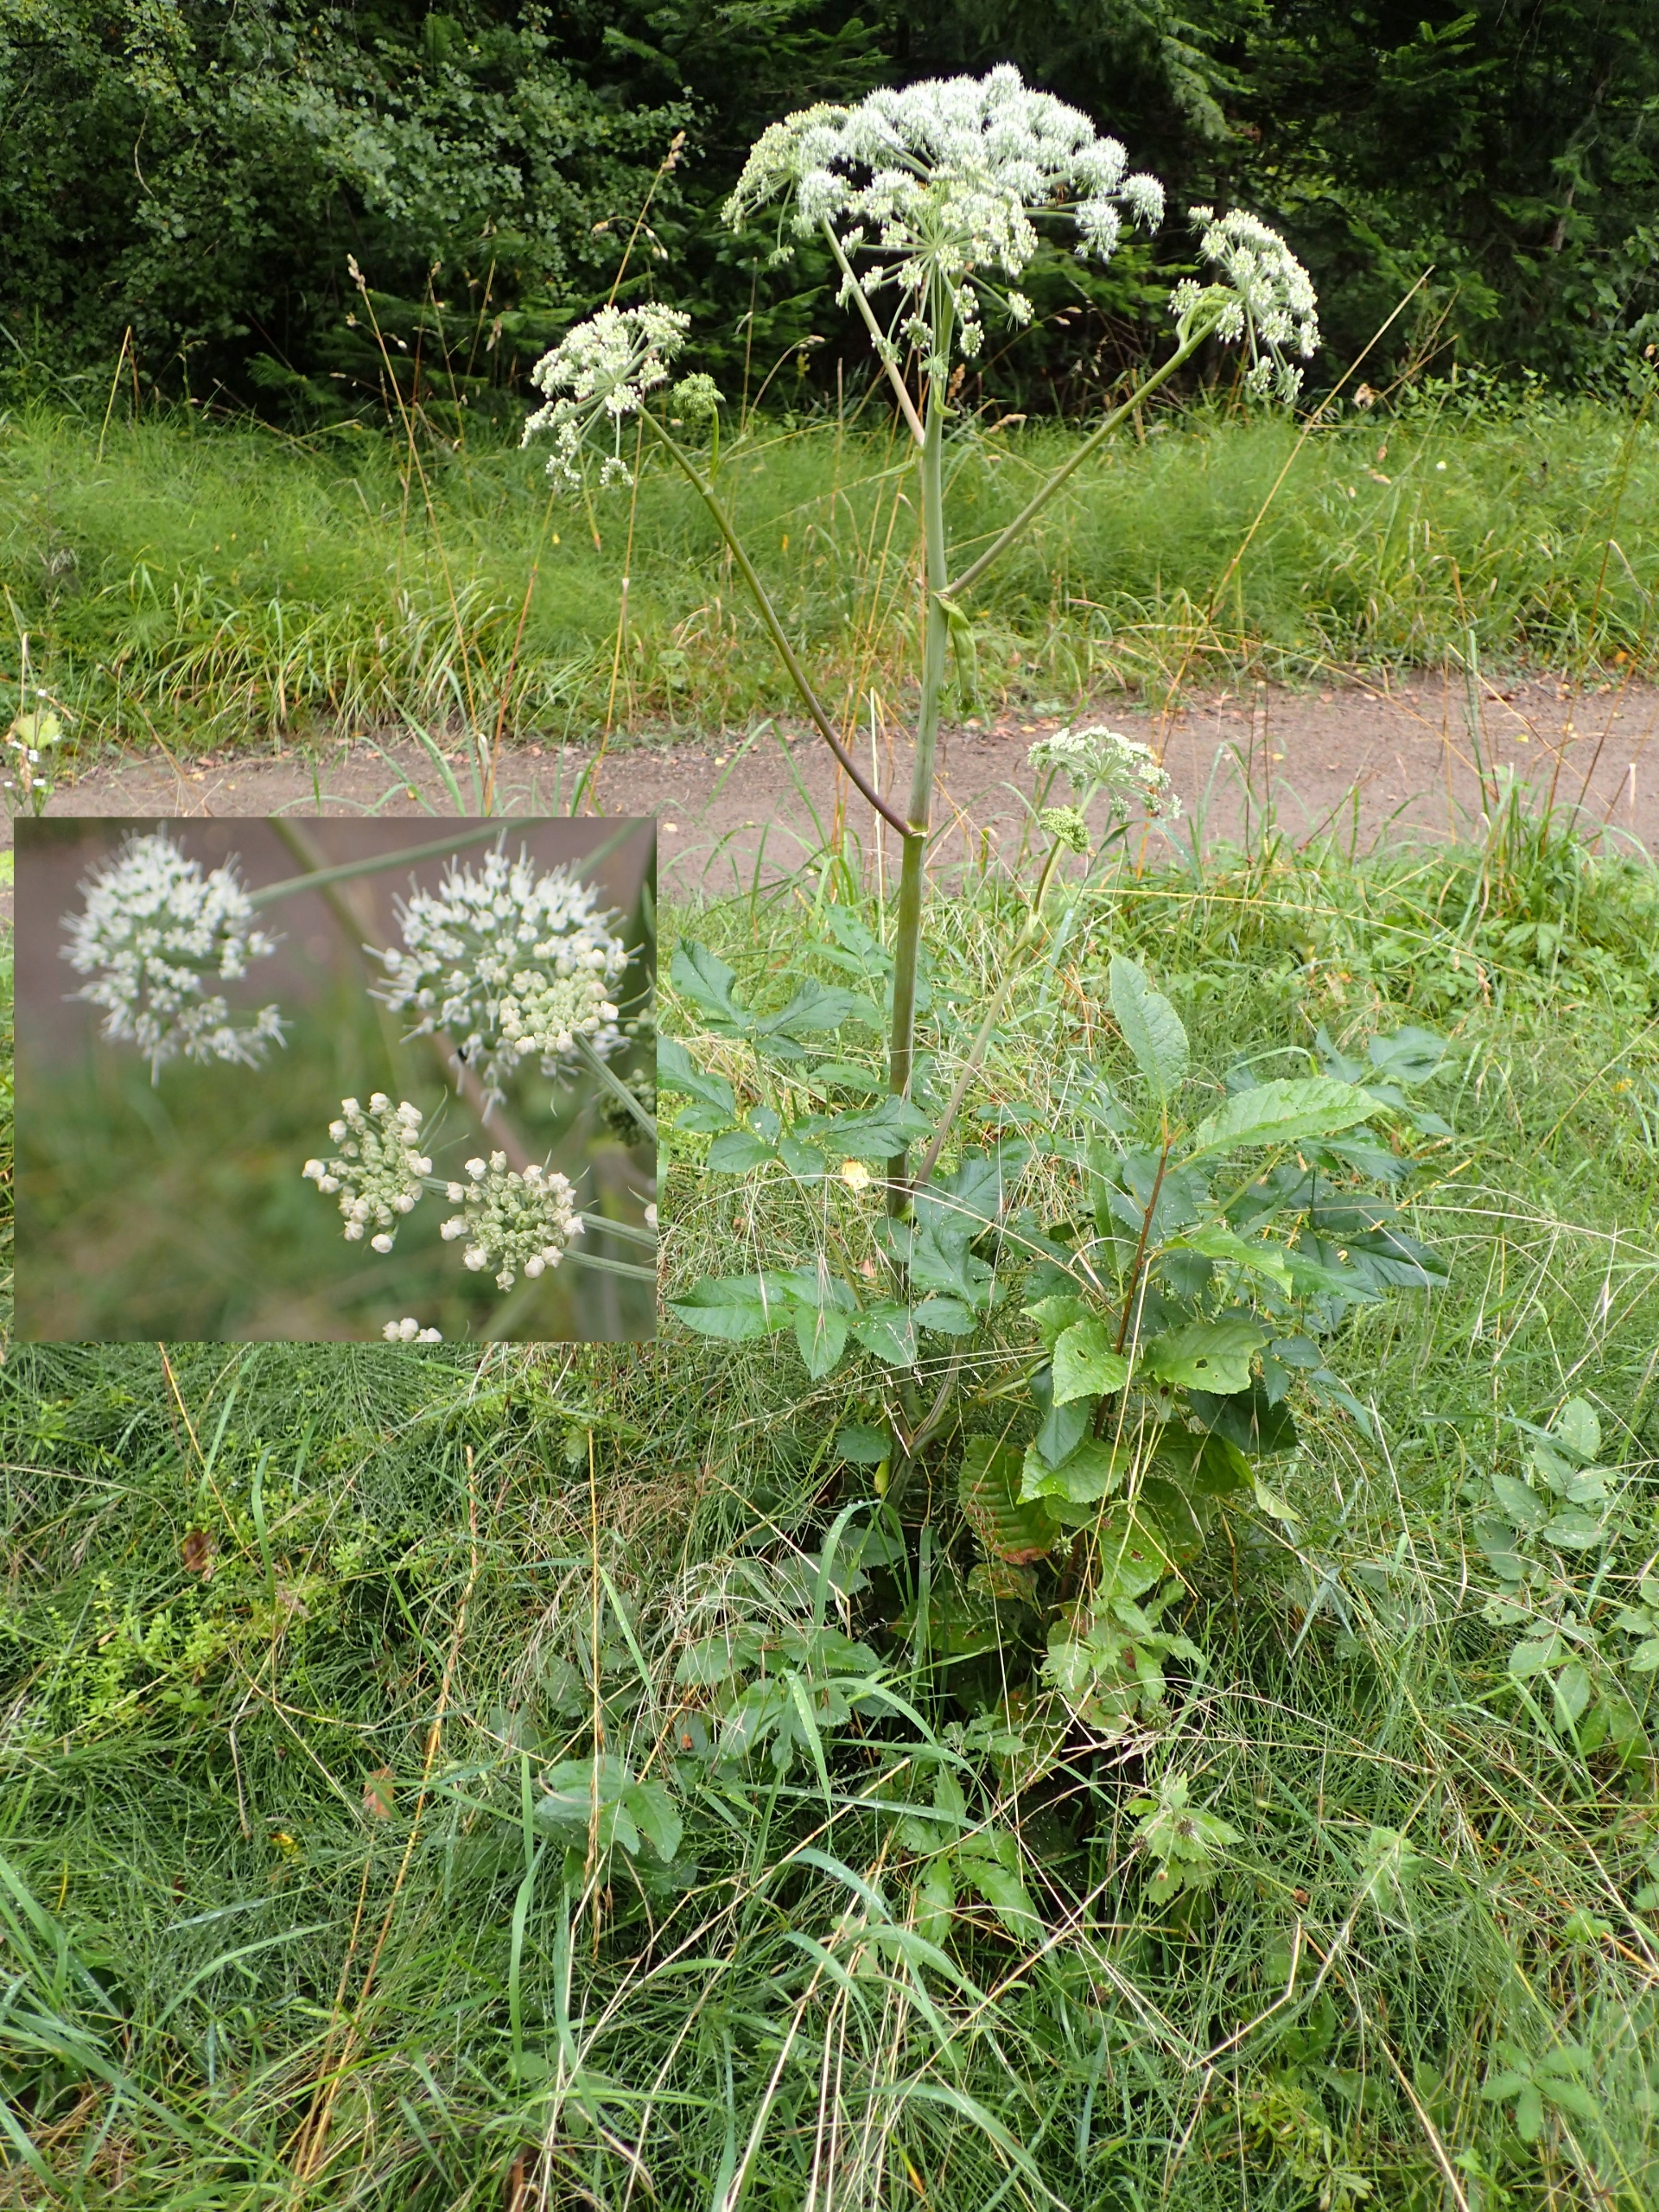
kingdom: Plantae
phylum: Tracheophyta
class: Magnoliopsida
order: Apiales
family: Apiaceae
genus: Angelica
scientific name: Angelica sylvestris
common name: Angelik
